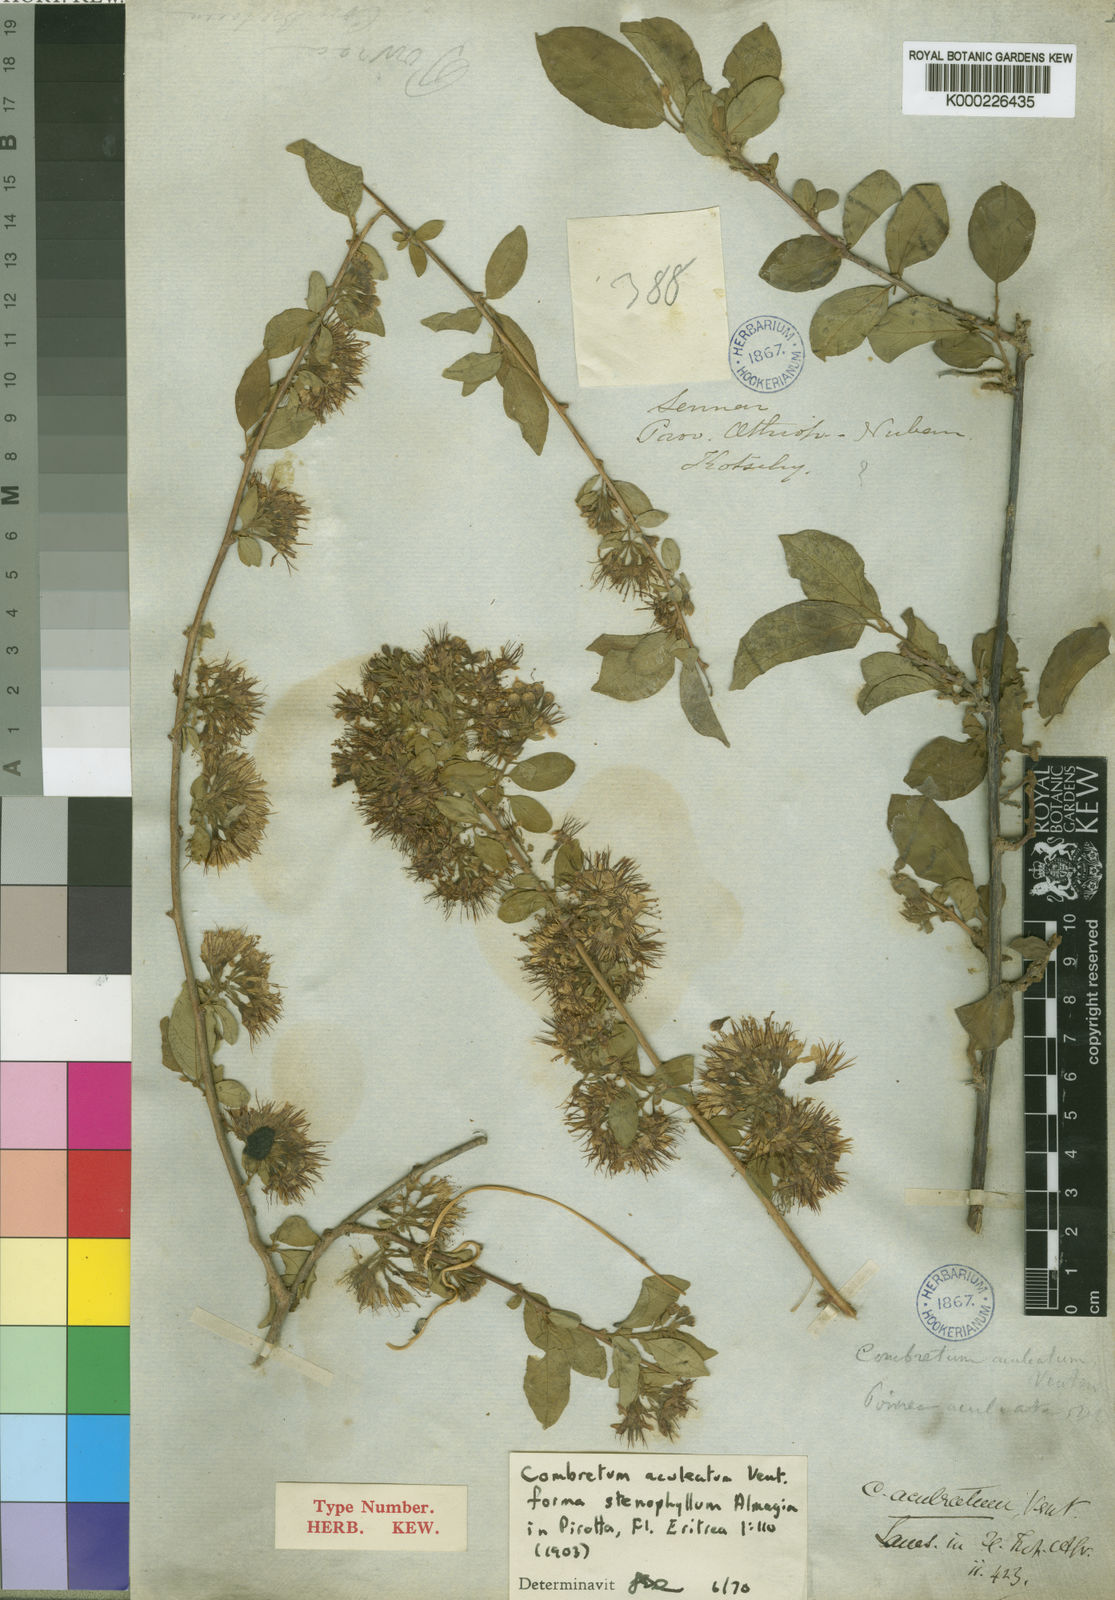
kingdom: Plantae
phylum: Tracheophyta
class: Magnoliopsida
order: Myrtales
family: Combretaceae
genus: Combretum
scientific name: Combretum aculeatum
